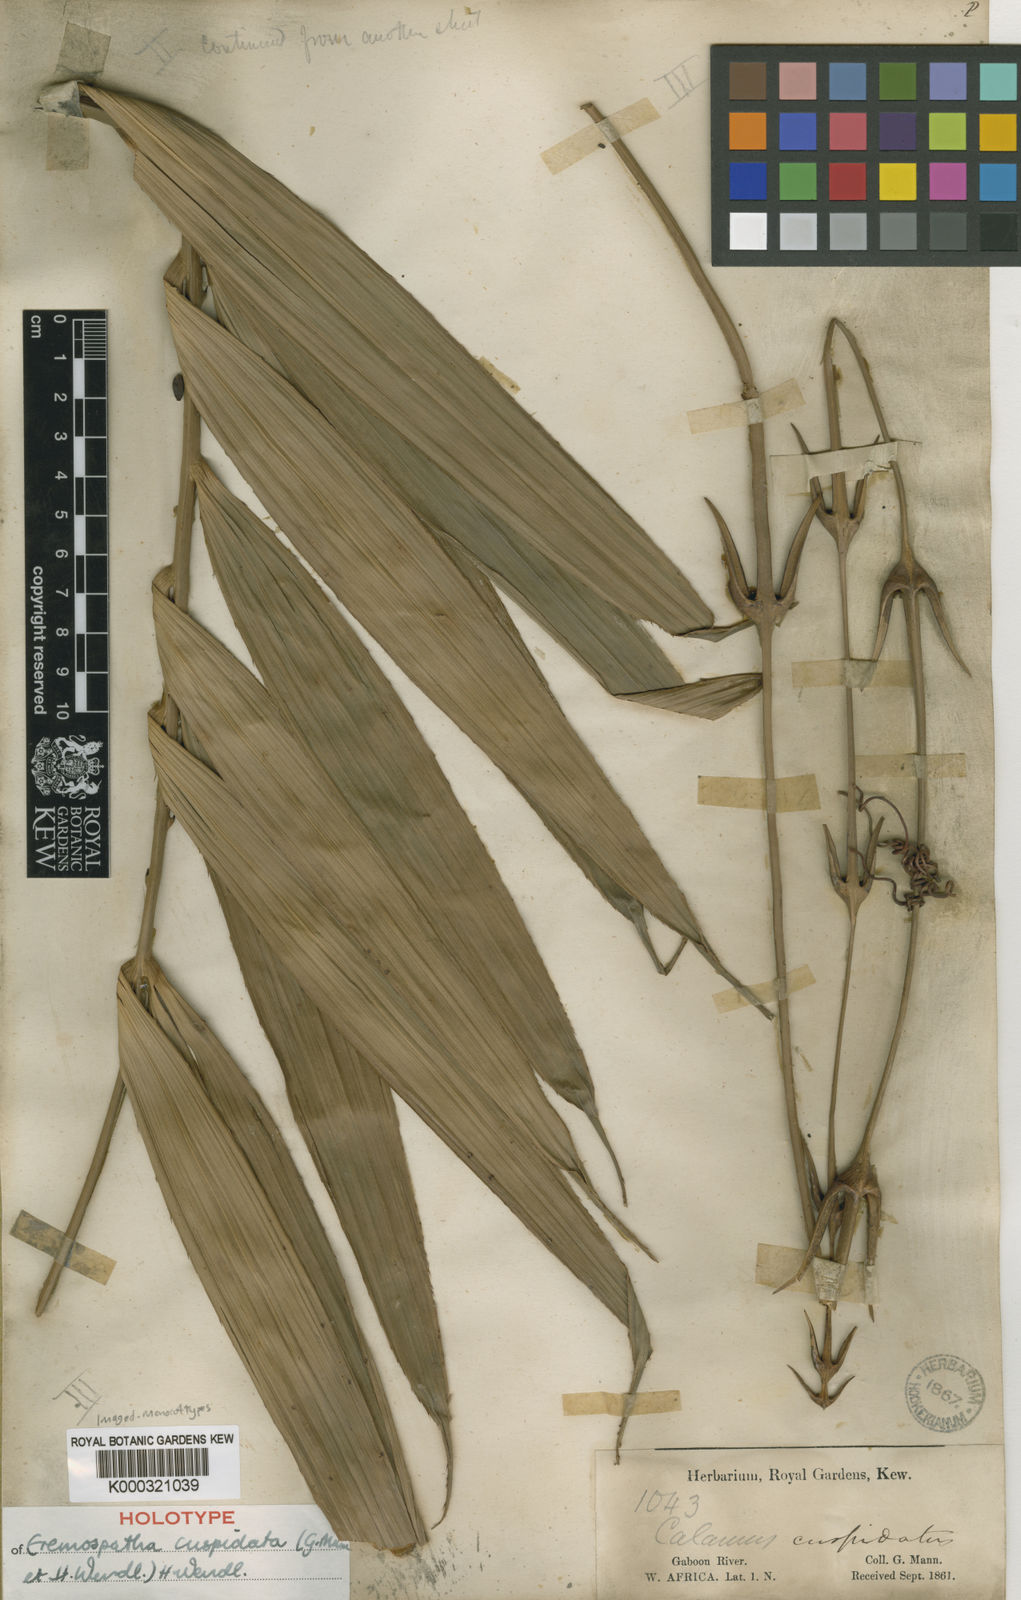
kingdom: Plantae
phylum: Tracheophyta
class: Liliopsida
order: Arecales
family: Arecaceae
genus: Eremospatha
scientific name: Eremospatha cuspidata
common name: Rattan
